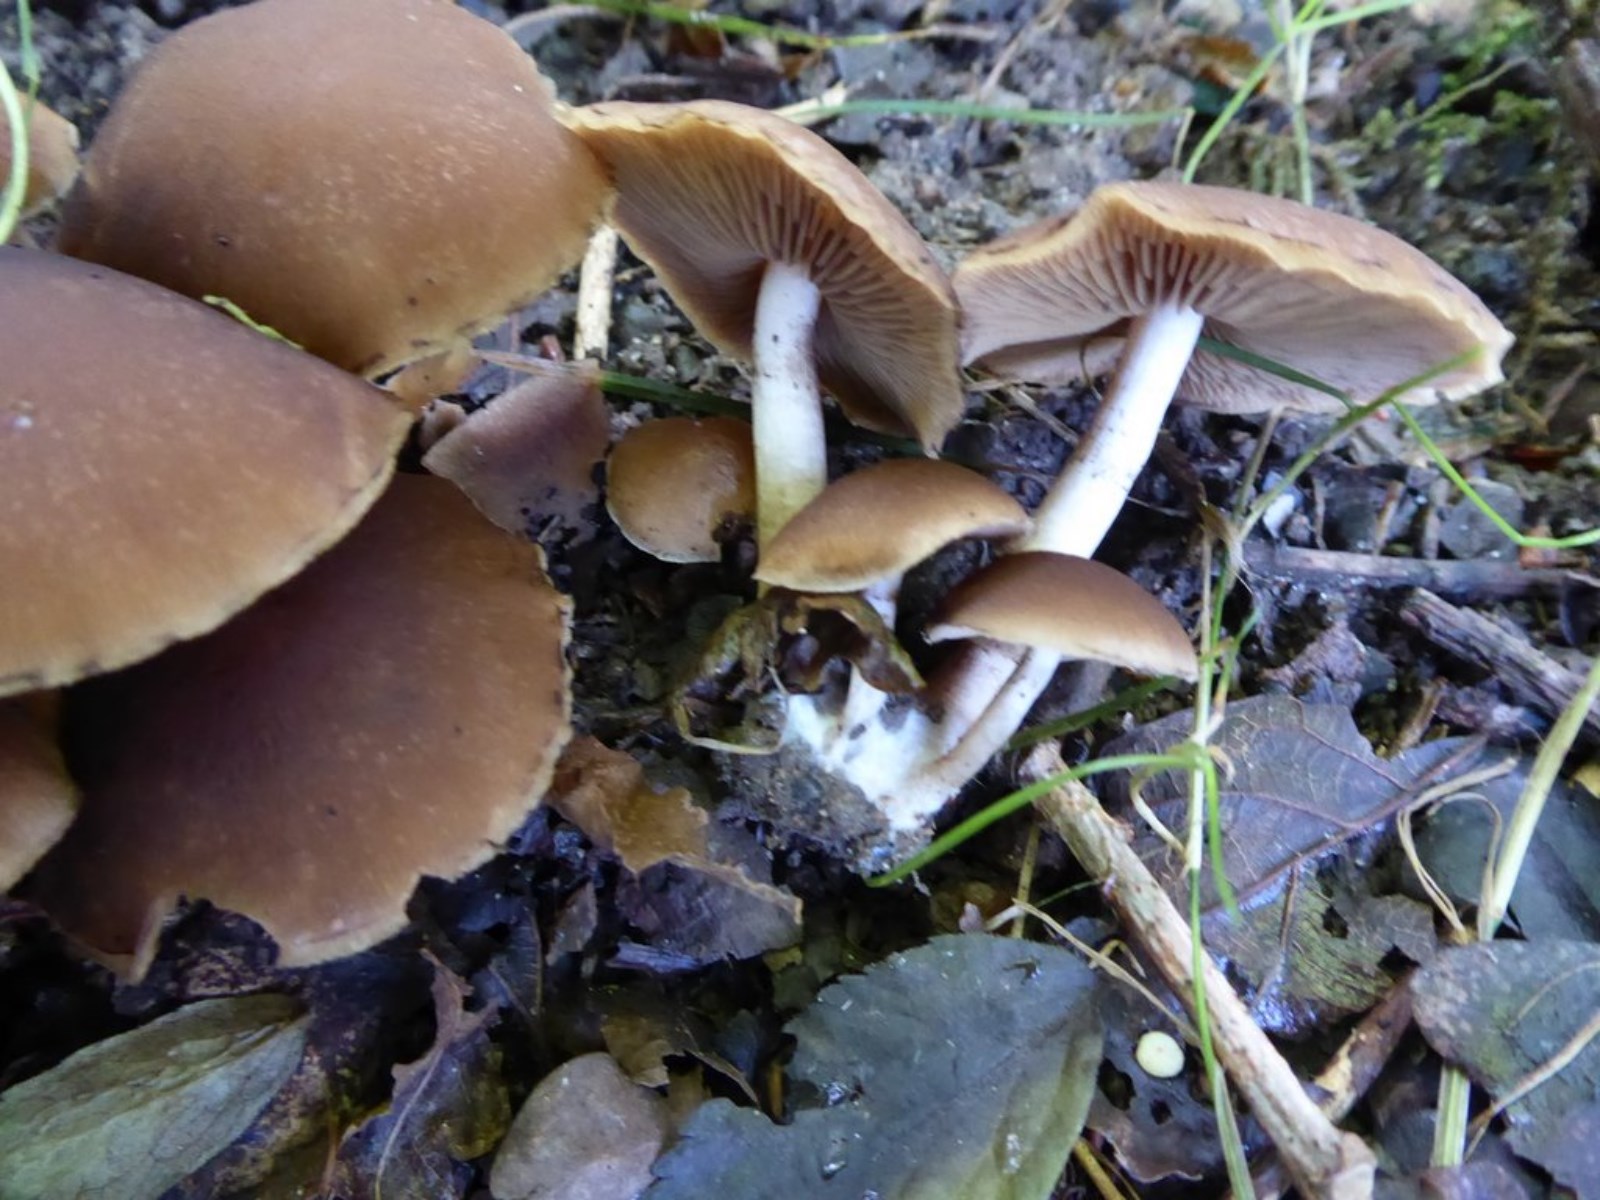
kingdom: Fungi
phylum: Basidiomycota
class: Agaricomycetes
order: Agaricales
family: Psathyrellaceae
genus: Psathyrella
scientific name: Psathyrella piluliformis
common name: lysstokket mørkhat
